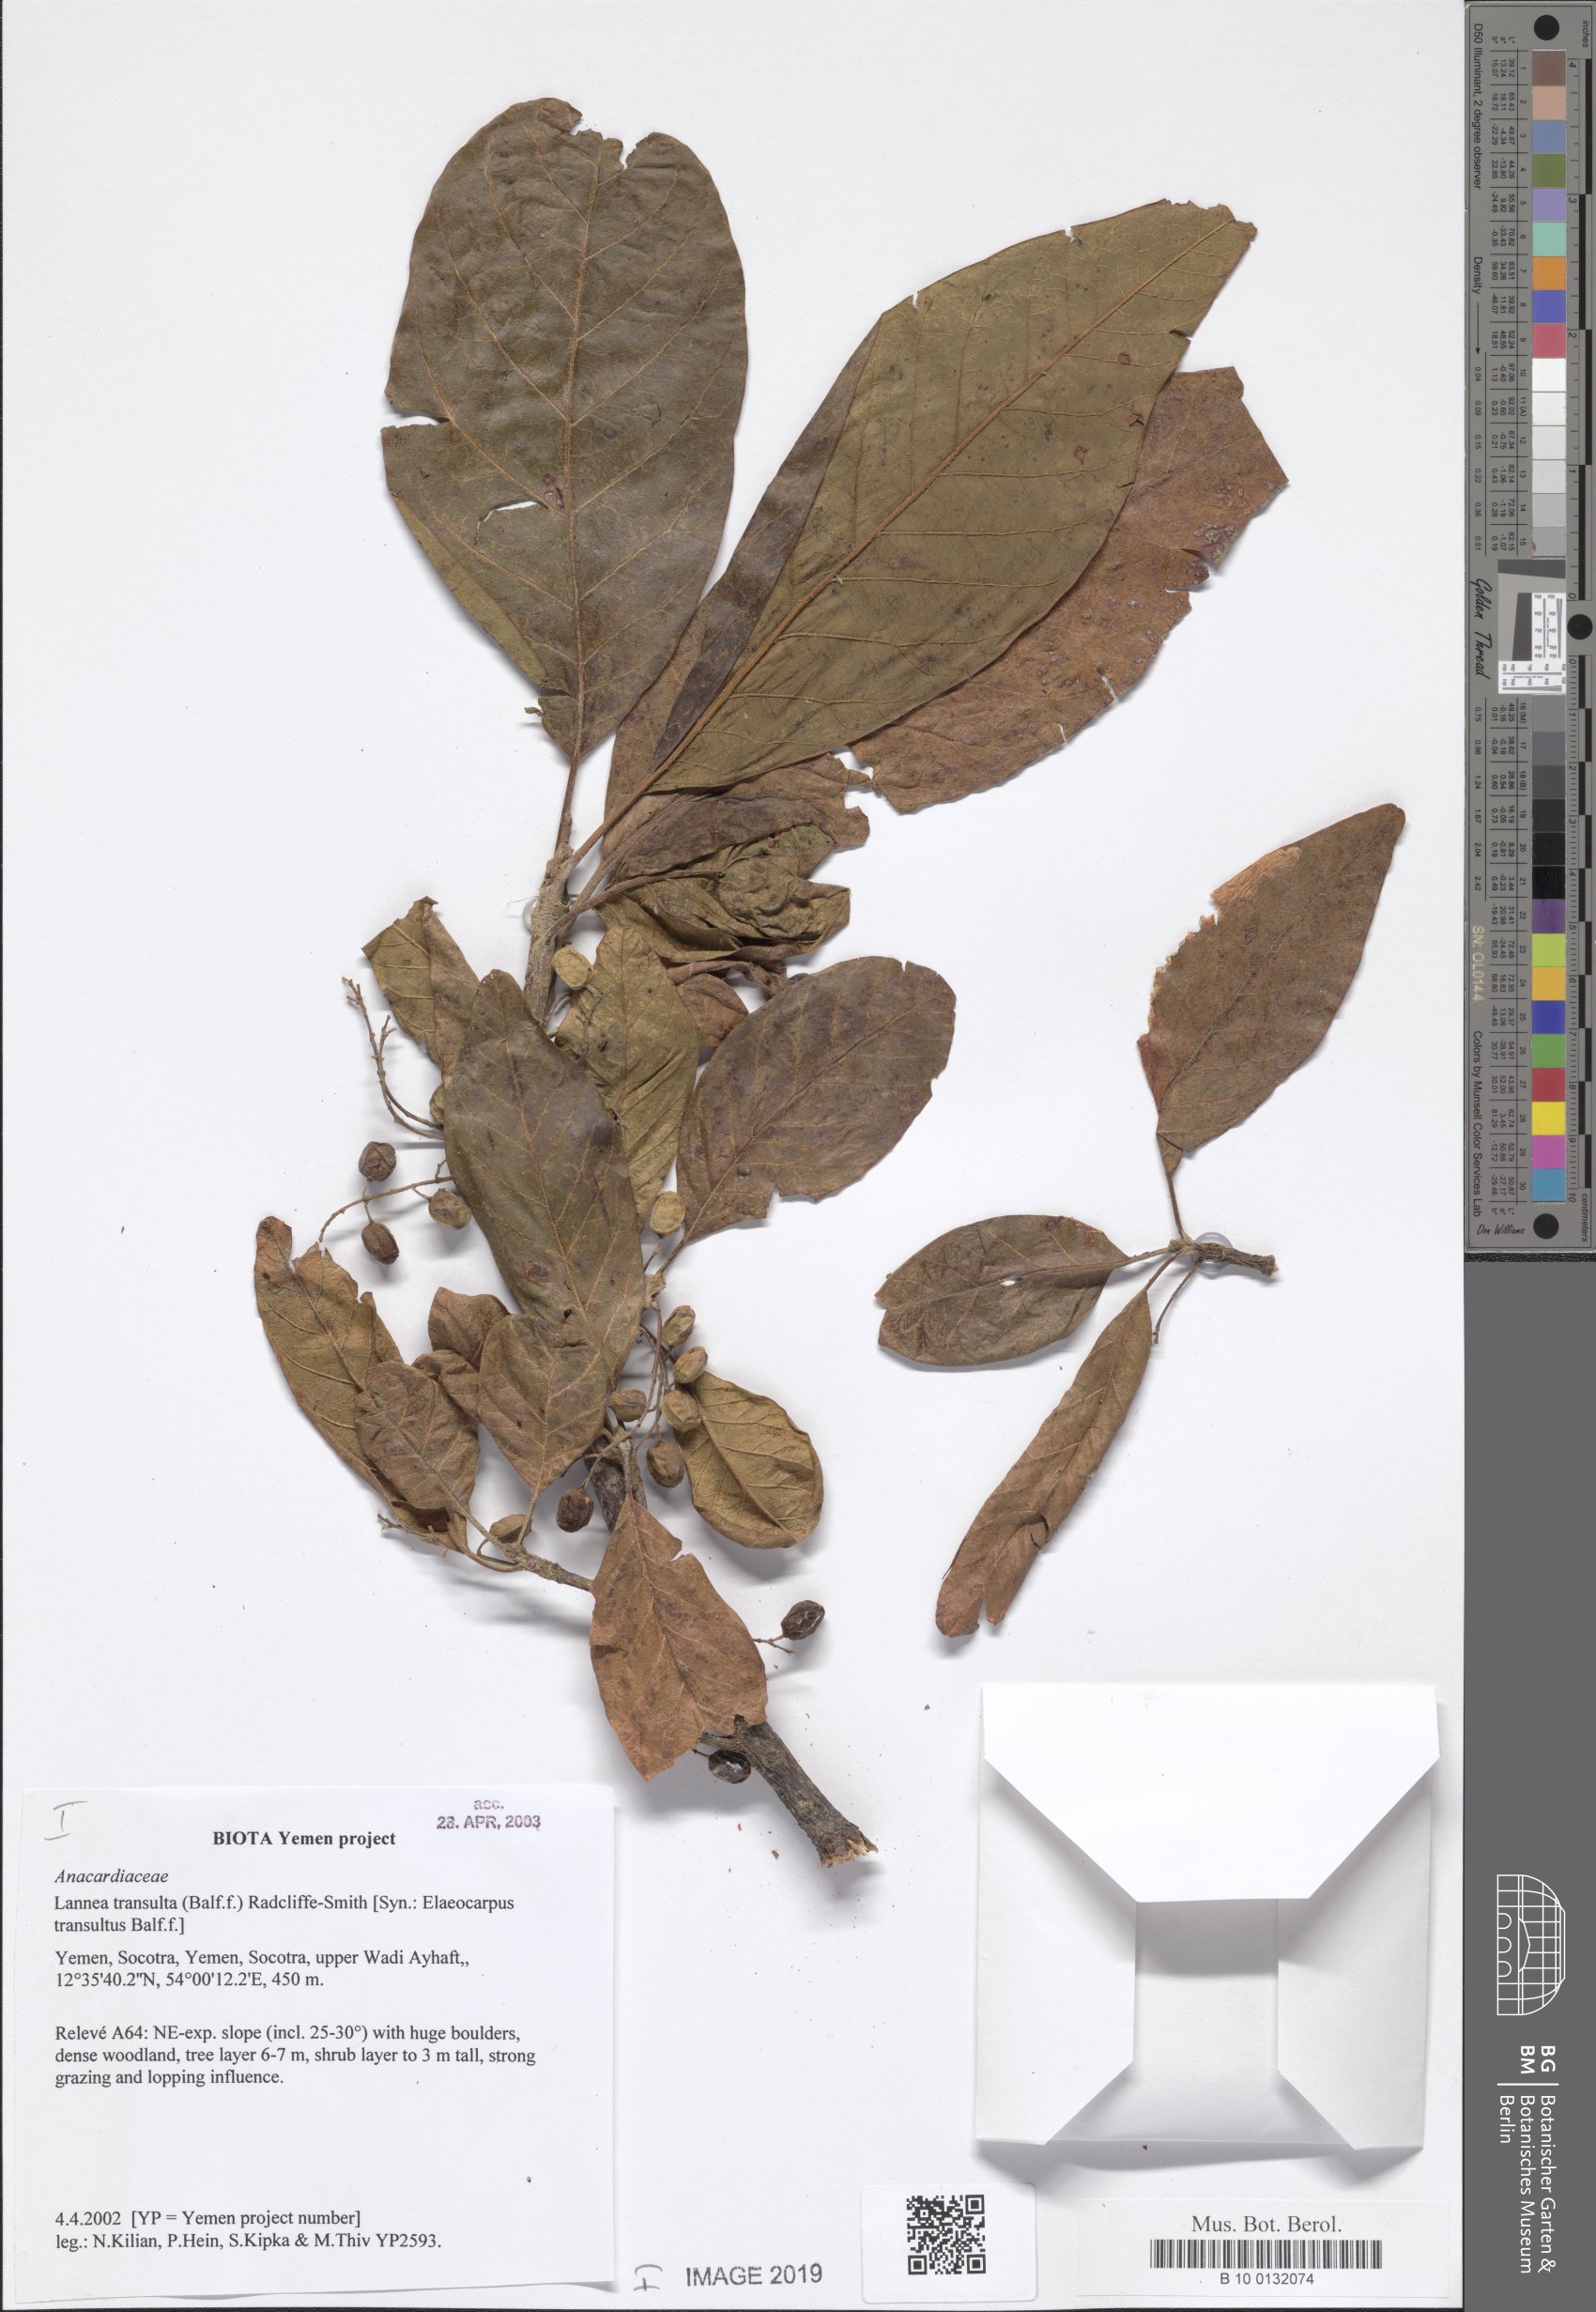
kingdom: Plantae
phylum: Tracheophyta
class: Magnoliopsida
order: Sapindales
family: Anacardiaceae
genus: Lannea
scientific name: Lannea transulta
